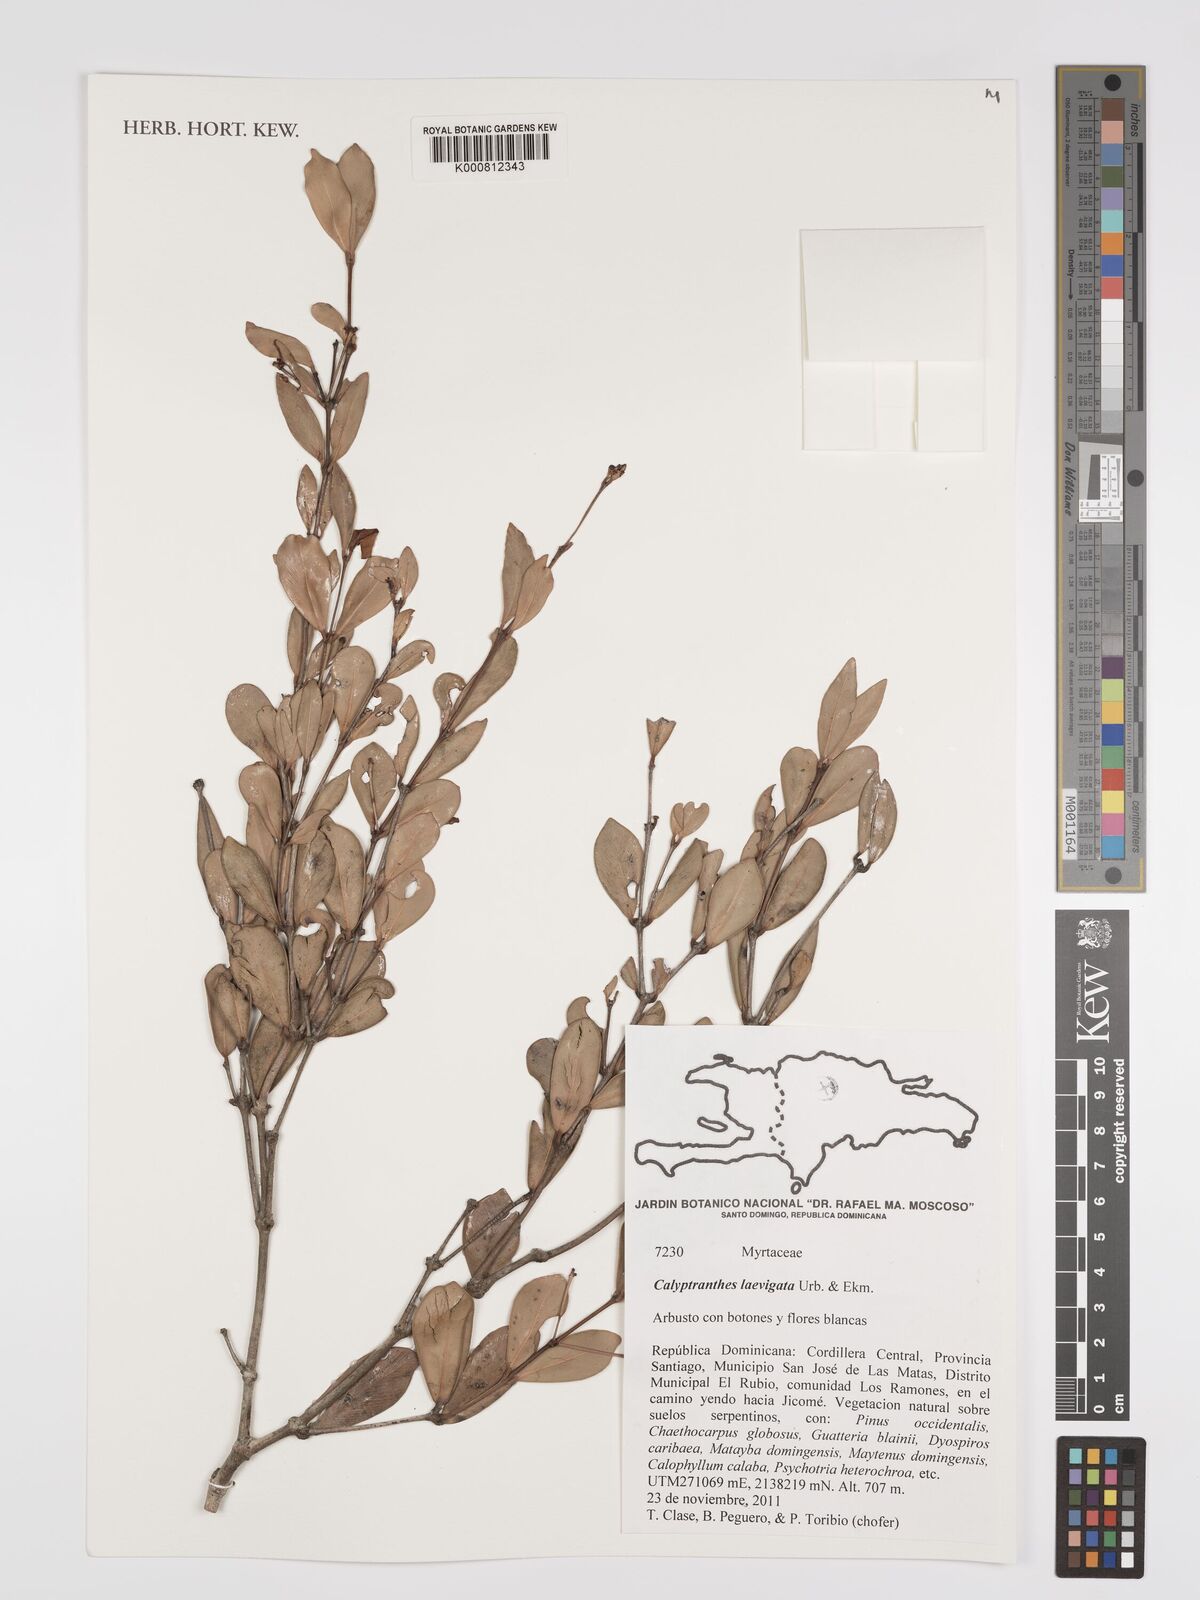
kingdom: Plantae
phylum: Tracheophyta
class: Magnoliopsida
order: Myrtales
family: Myrtaceae
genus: Myrcia
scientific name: Myrcia neolaevigata
